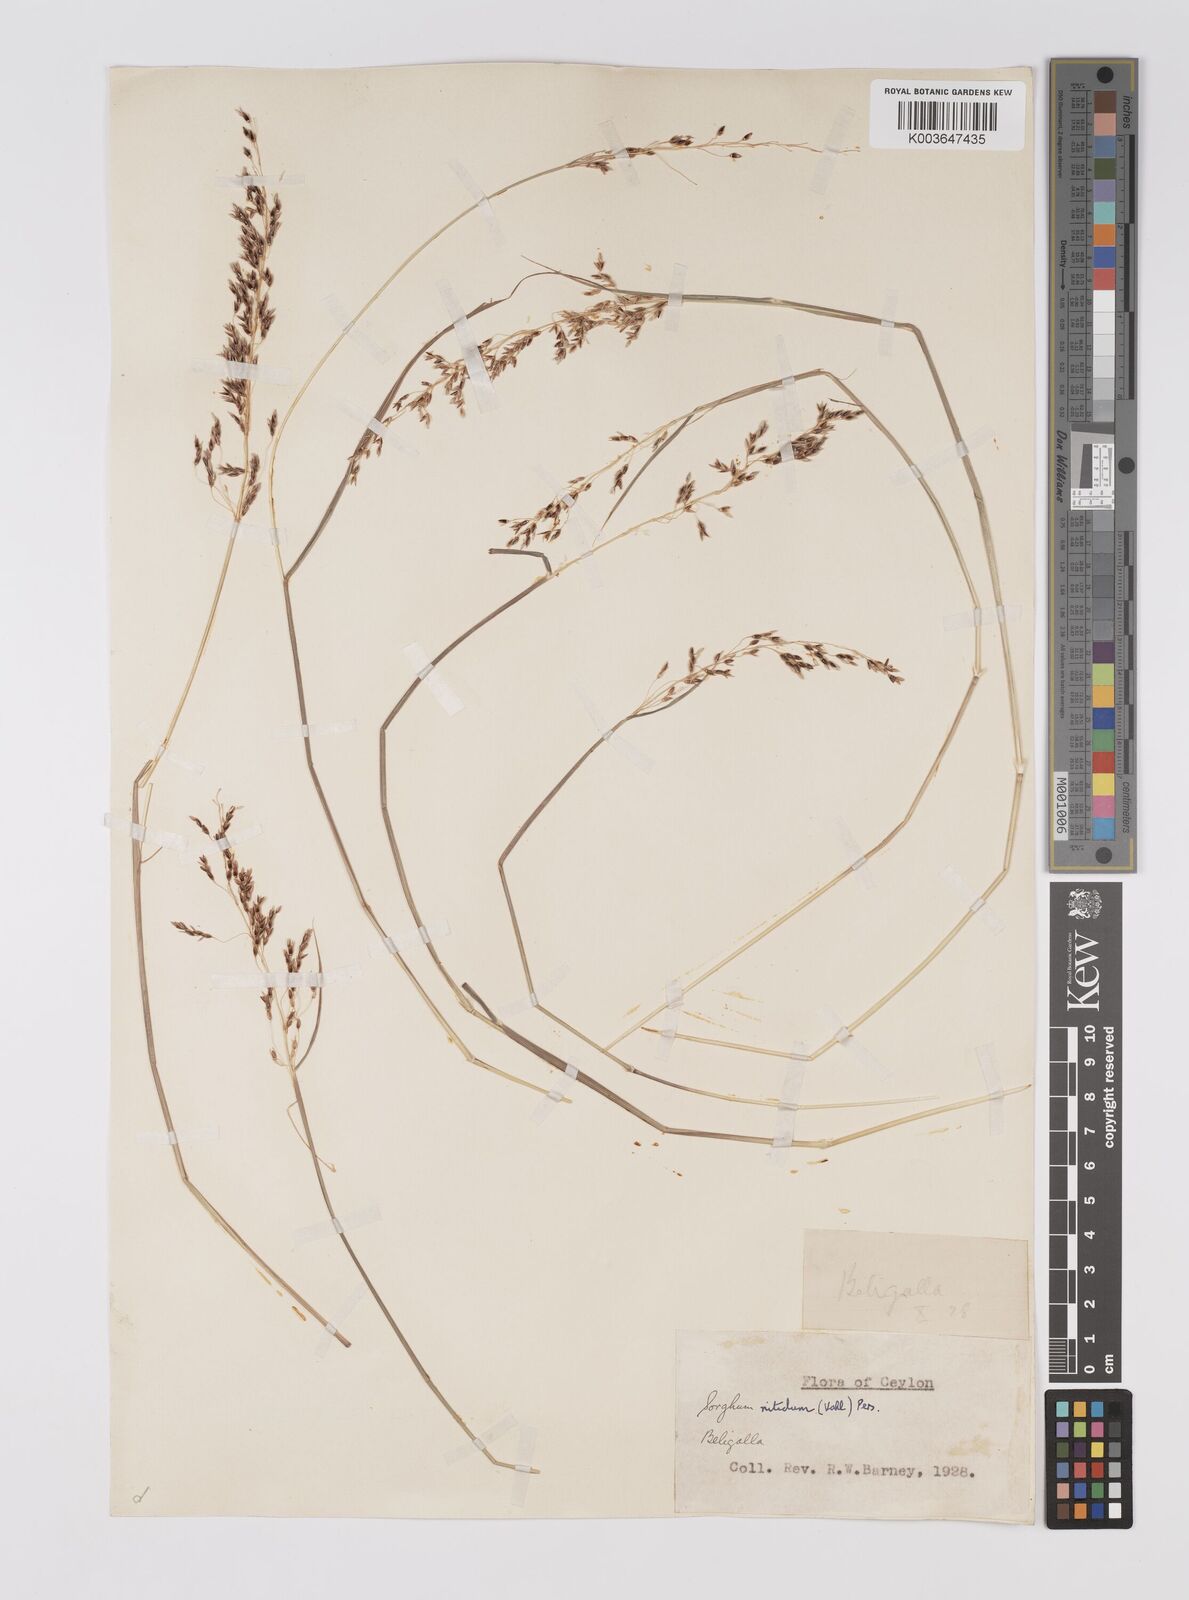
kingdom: Plantae
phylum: Tracheophyta
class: Liliopsida
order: Poales
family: Poaceae
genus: Sorghum
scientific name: Sorghum nitidum
